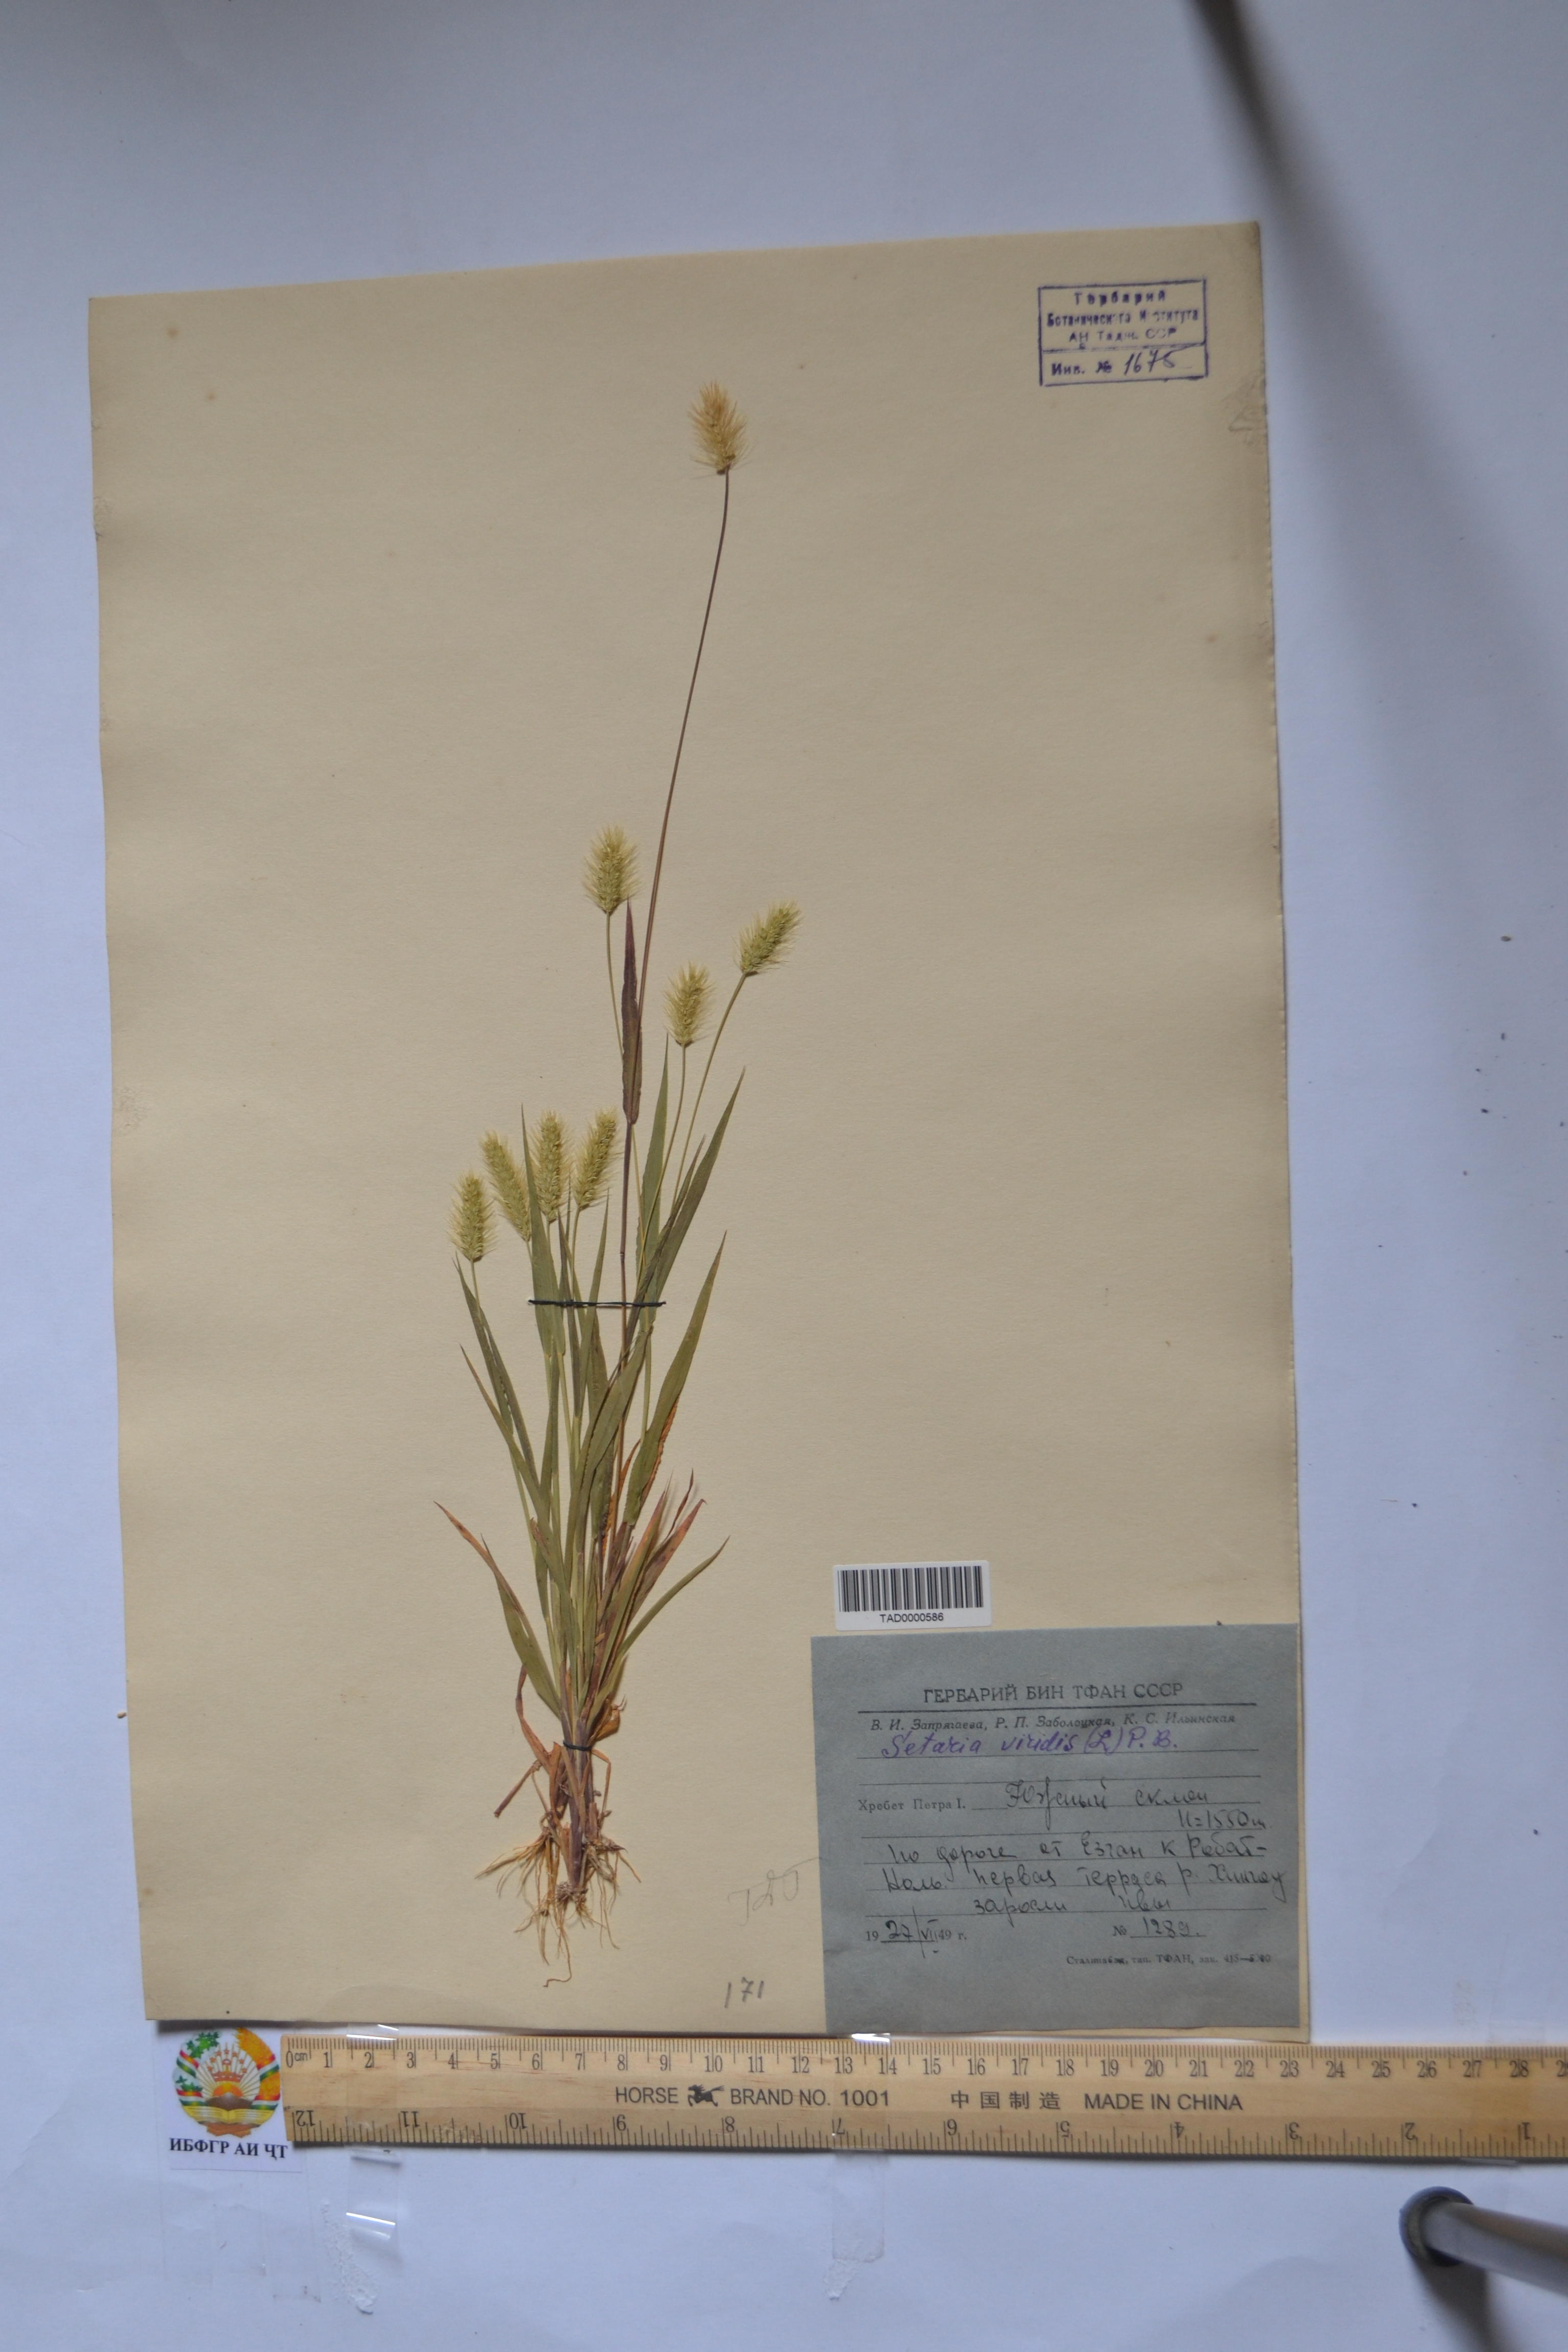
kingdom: Plantae
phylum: Tracheophyta
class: Liliopsida
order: Poales
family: Poaceae
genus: Setaria
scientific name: Setaria viridis
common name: Green bristlegrass
